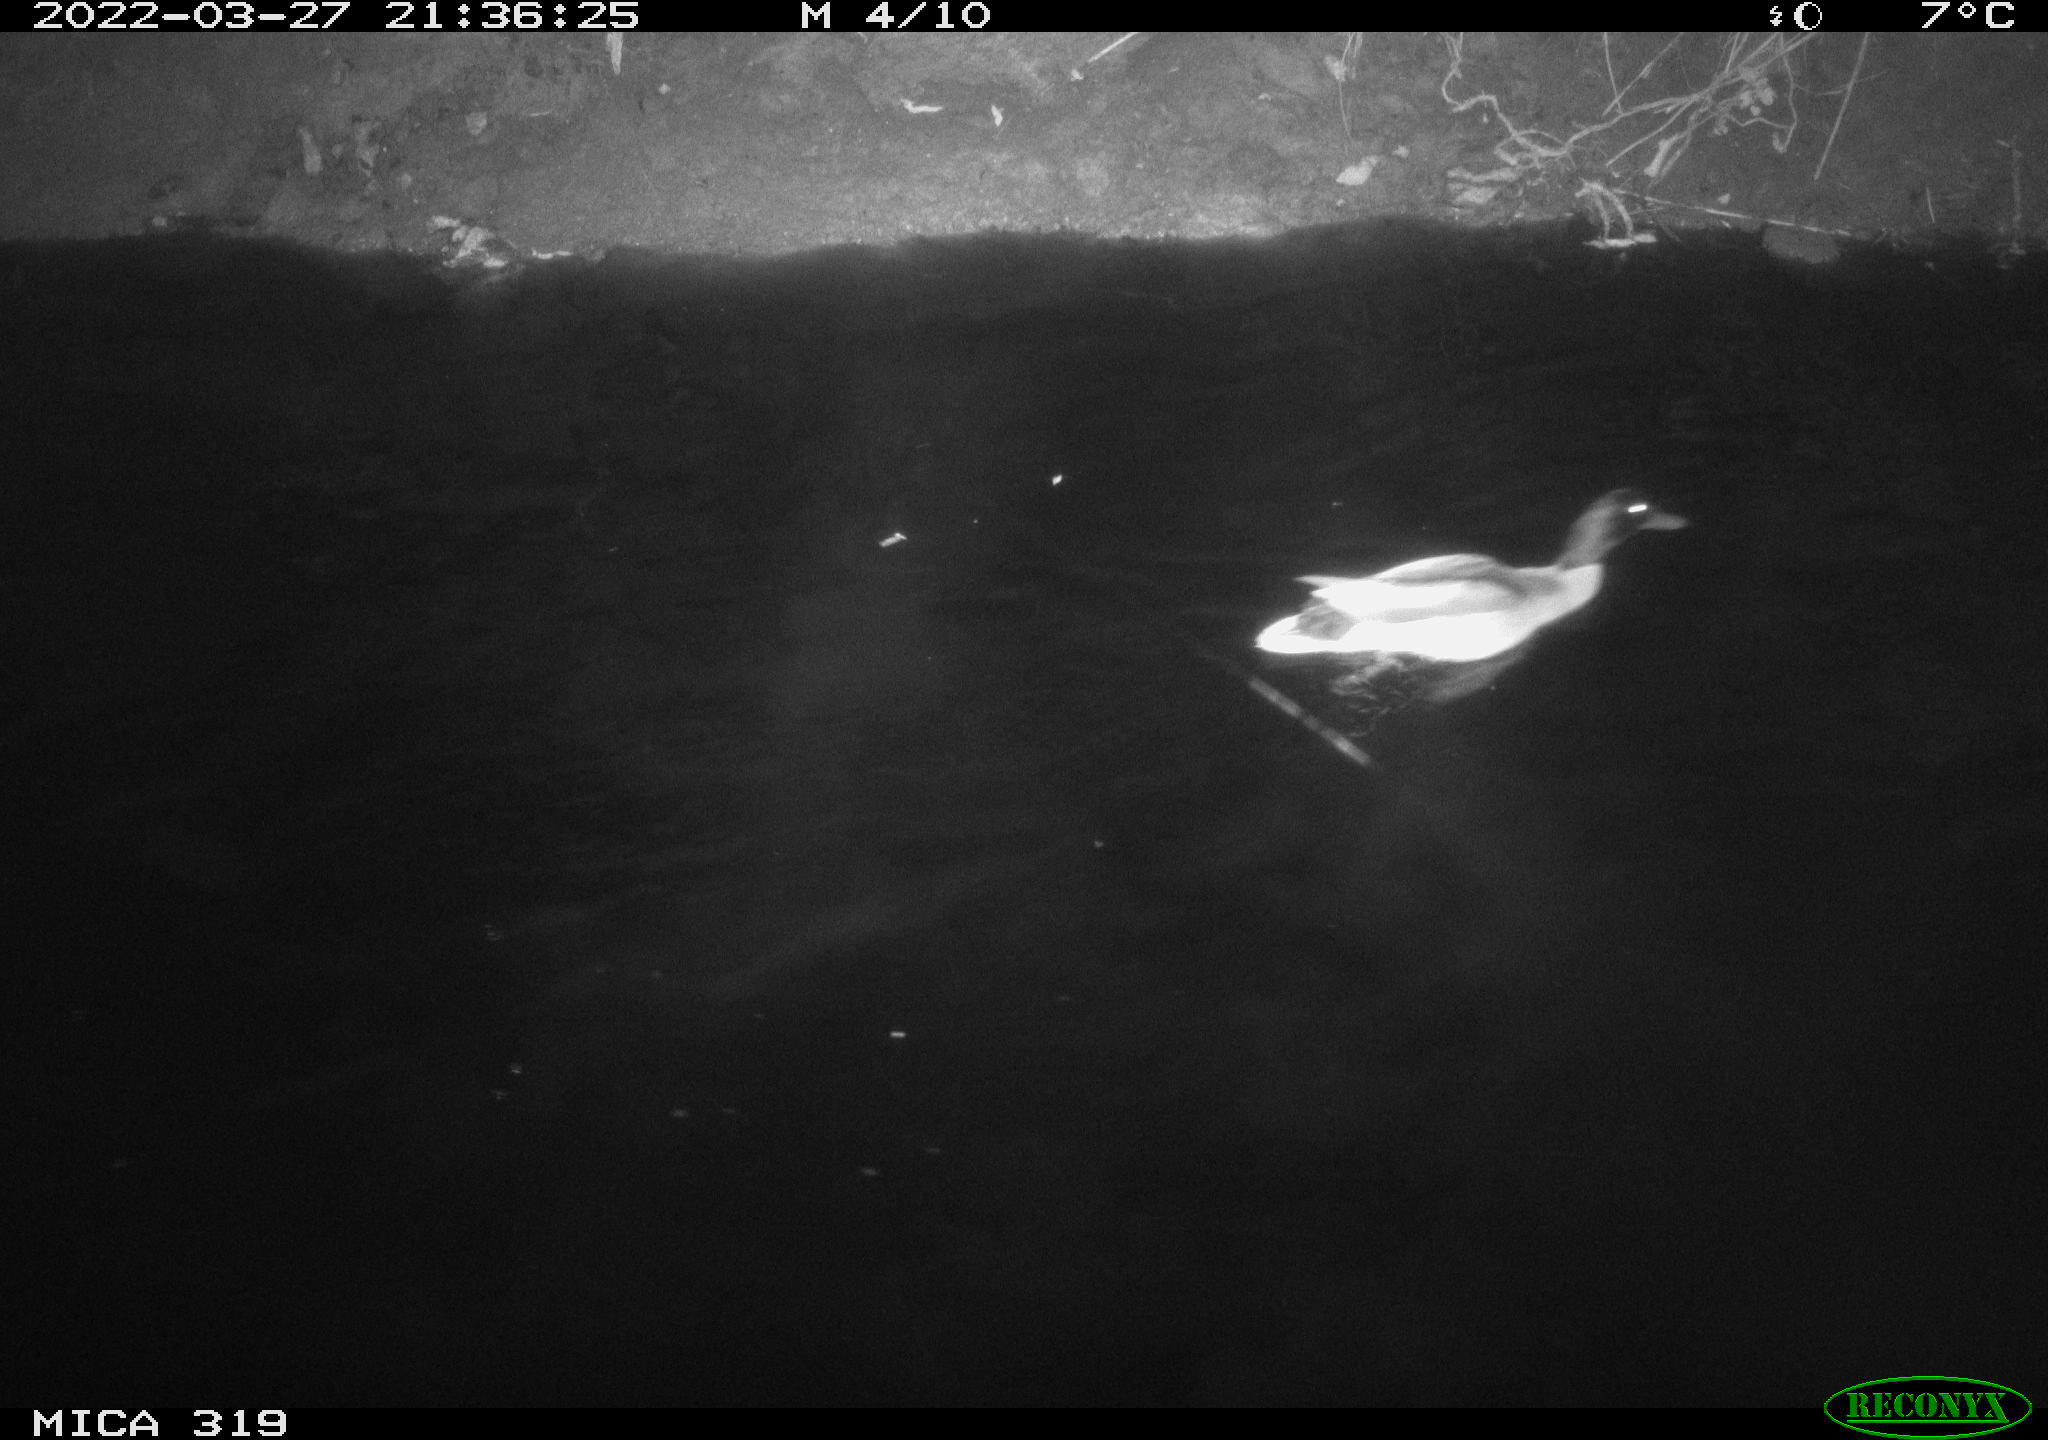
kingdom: Animalia
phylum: Chordata
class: Aves
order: Anseriformes
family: Anatidae
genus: Anas
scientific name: Anas platyrhynchos
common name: Mallard
